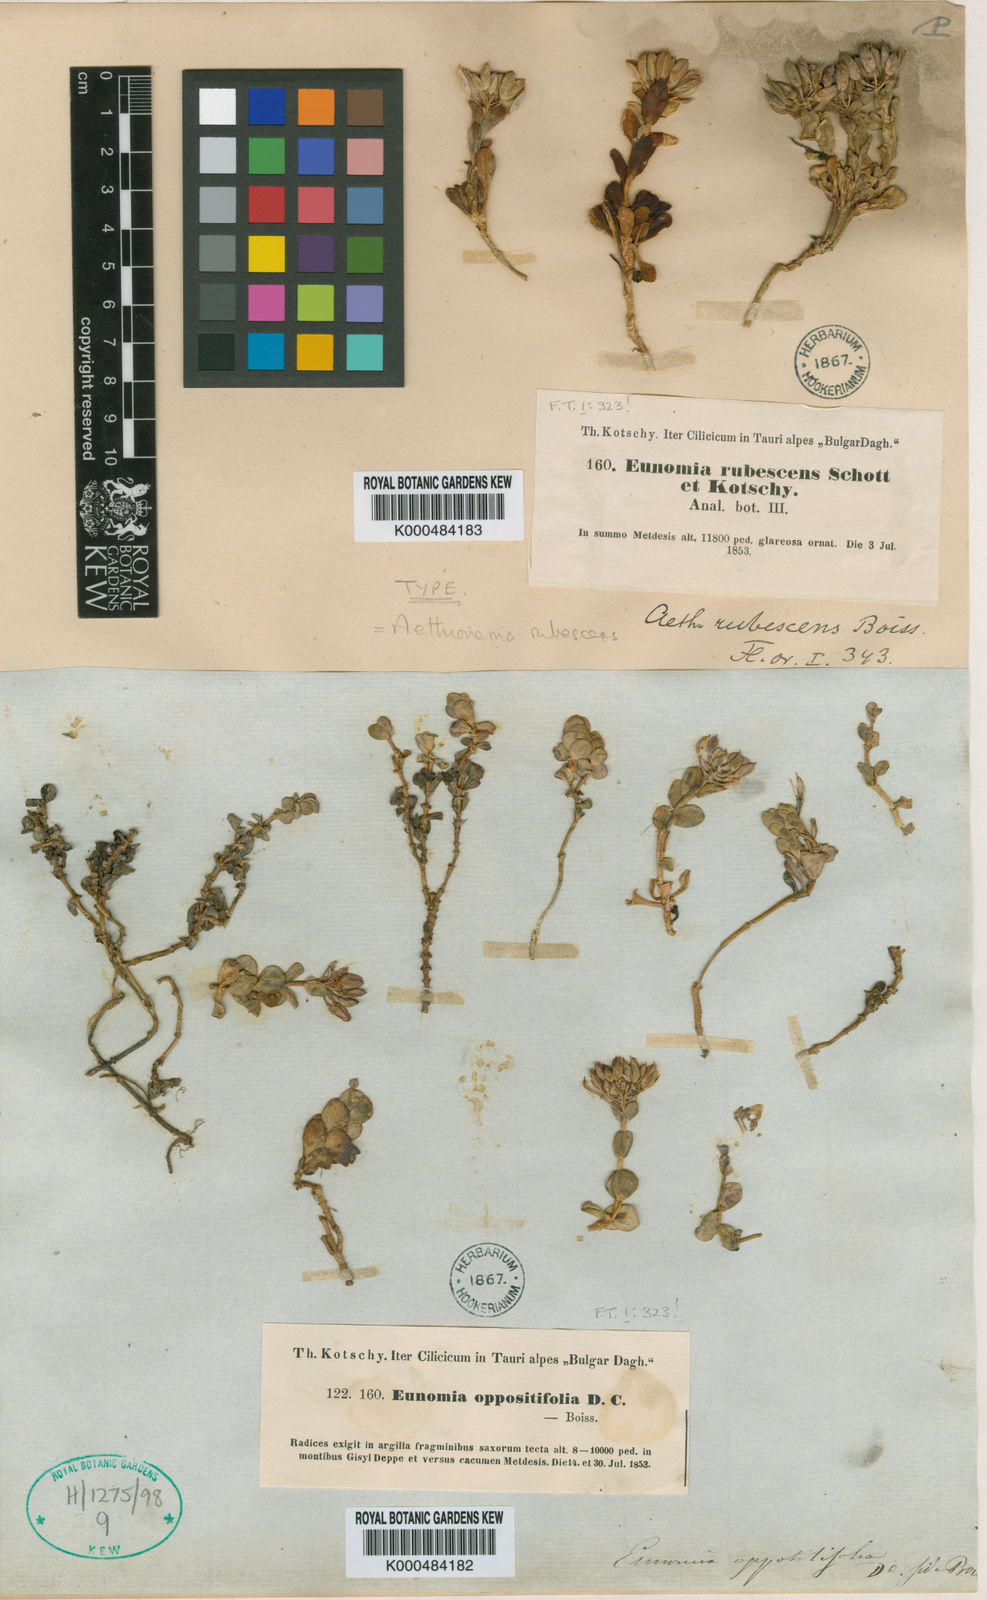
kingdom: Plantae
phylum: Tracheophyta
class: Magnoliopsida
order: Brassicales
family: Brassicaceae
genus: Noccaea
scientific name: Noccaea rubescens
